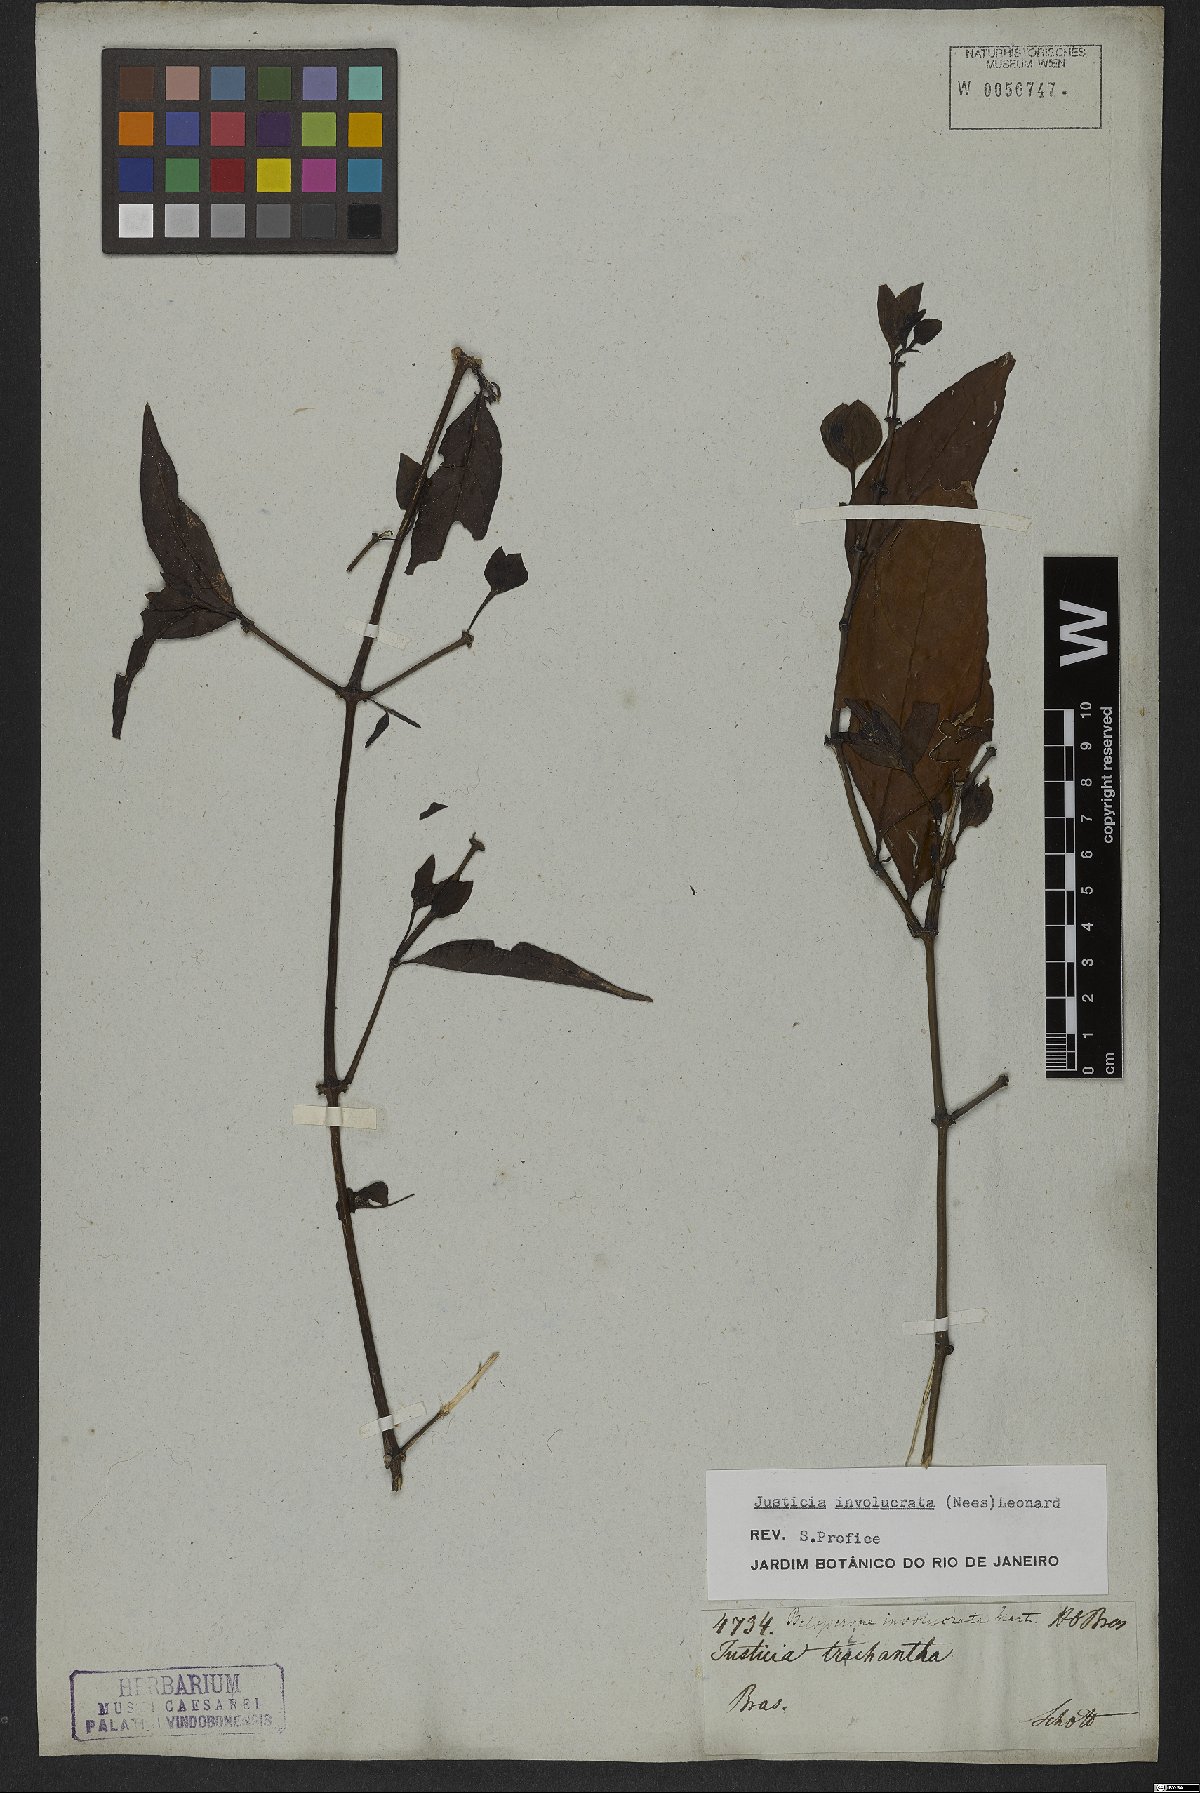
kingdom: Plantae
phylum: Tracheophyta
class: Magnoliopsida
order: Lamiales
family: Acanthaceae
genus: Justicia
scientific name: Justicia involucrata
